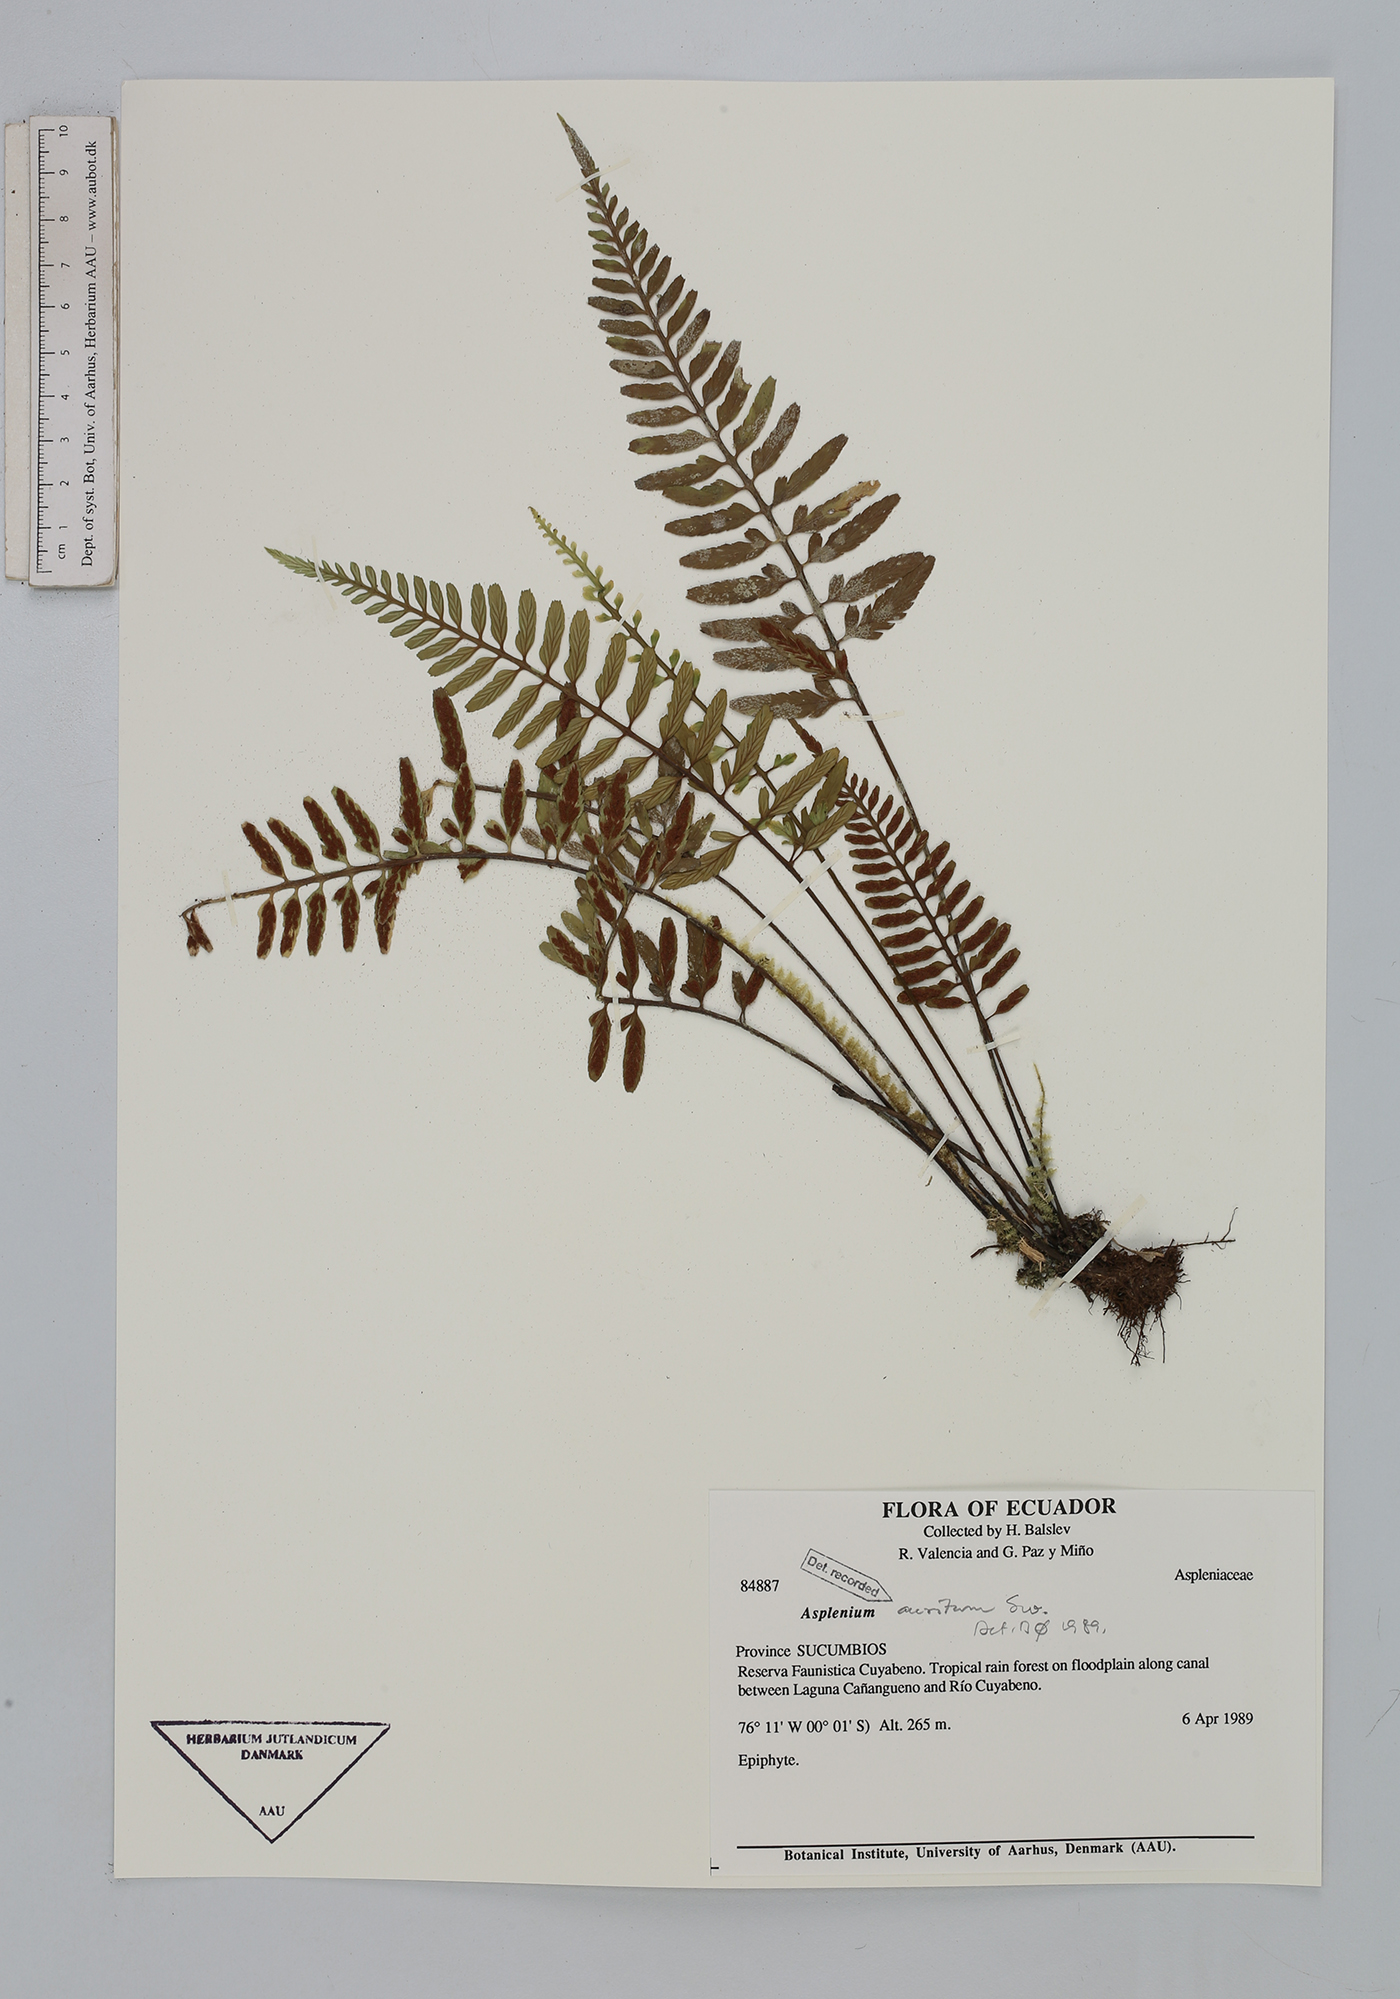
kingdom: Plantae
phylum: Tracheophyta
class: Polypodiopsida
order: Polypodiales
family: Aspleniaceae
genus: Asplenium
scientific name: Asplenium auritum
